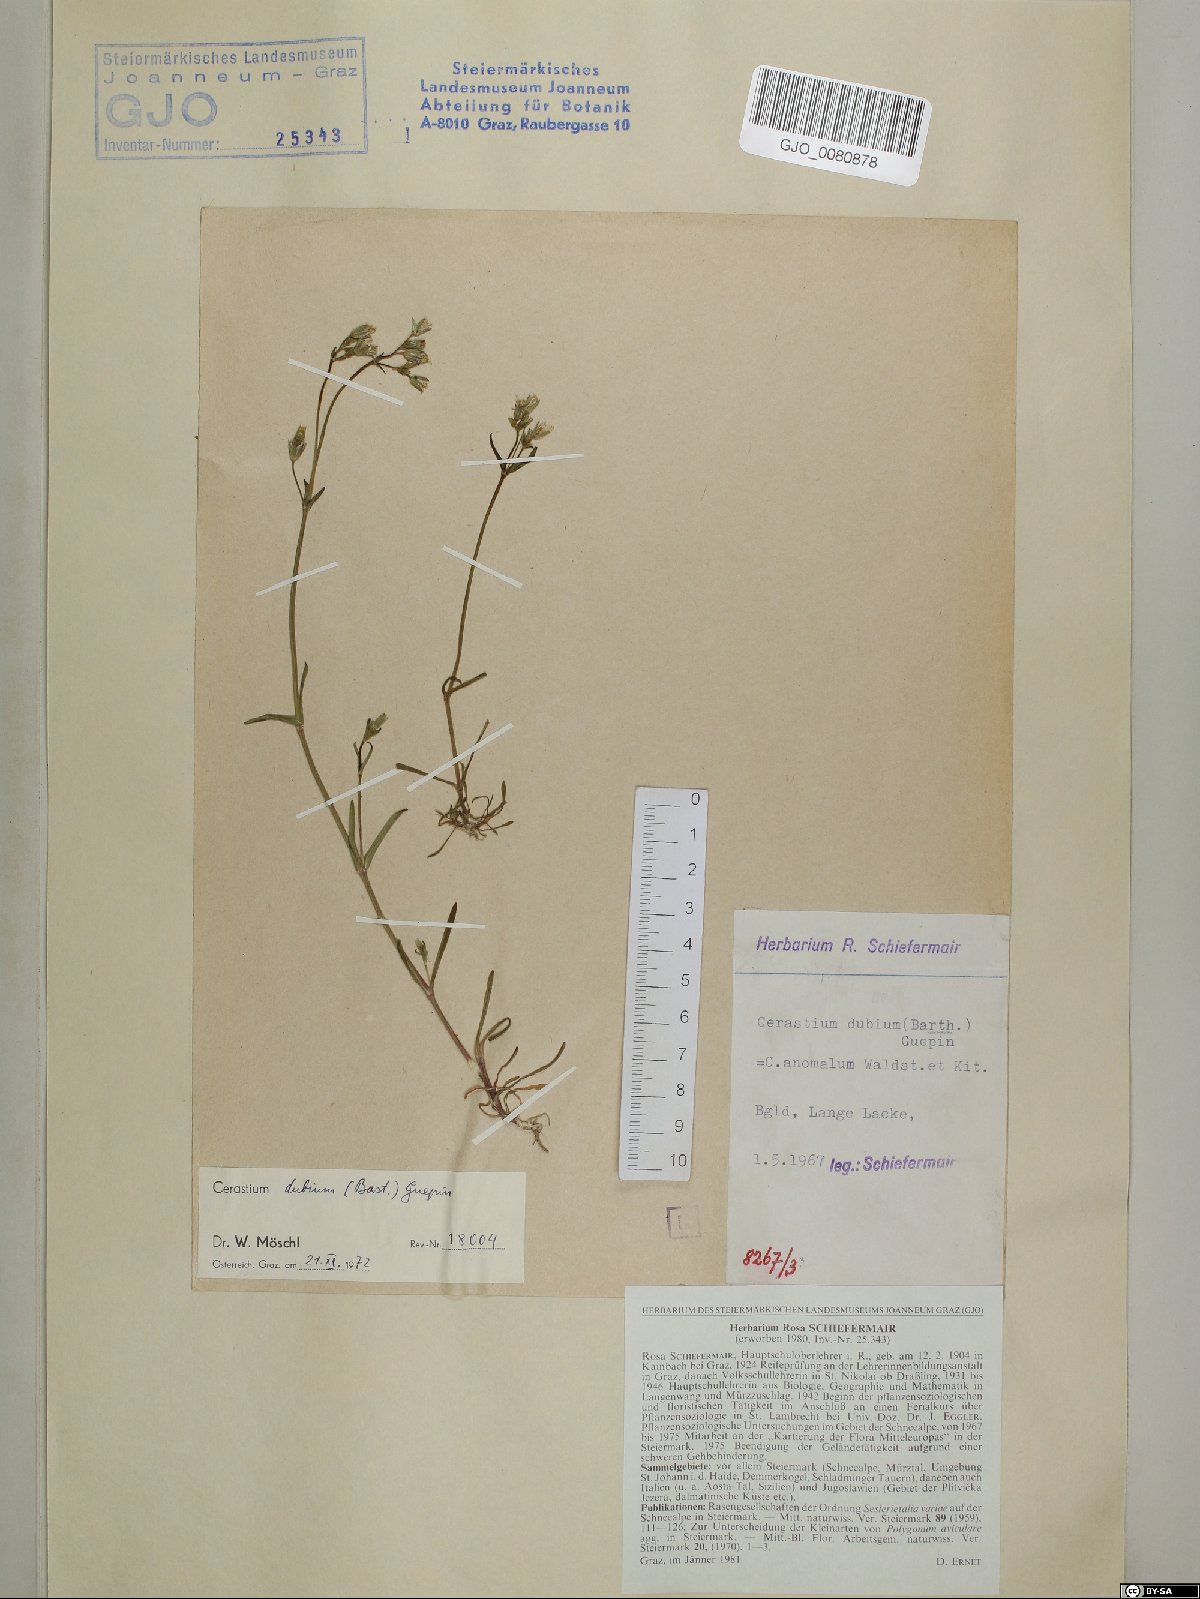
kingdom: Plantae
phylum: Tracheophyta
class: Magnoliopsida
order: Caryophyllales
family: Caryophyllaceae
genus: Dichodon
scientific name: Dichodon viscidum
